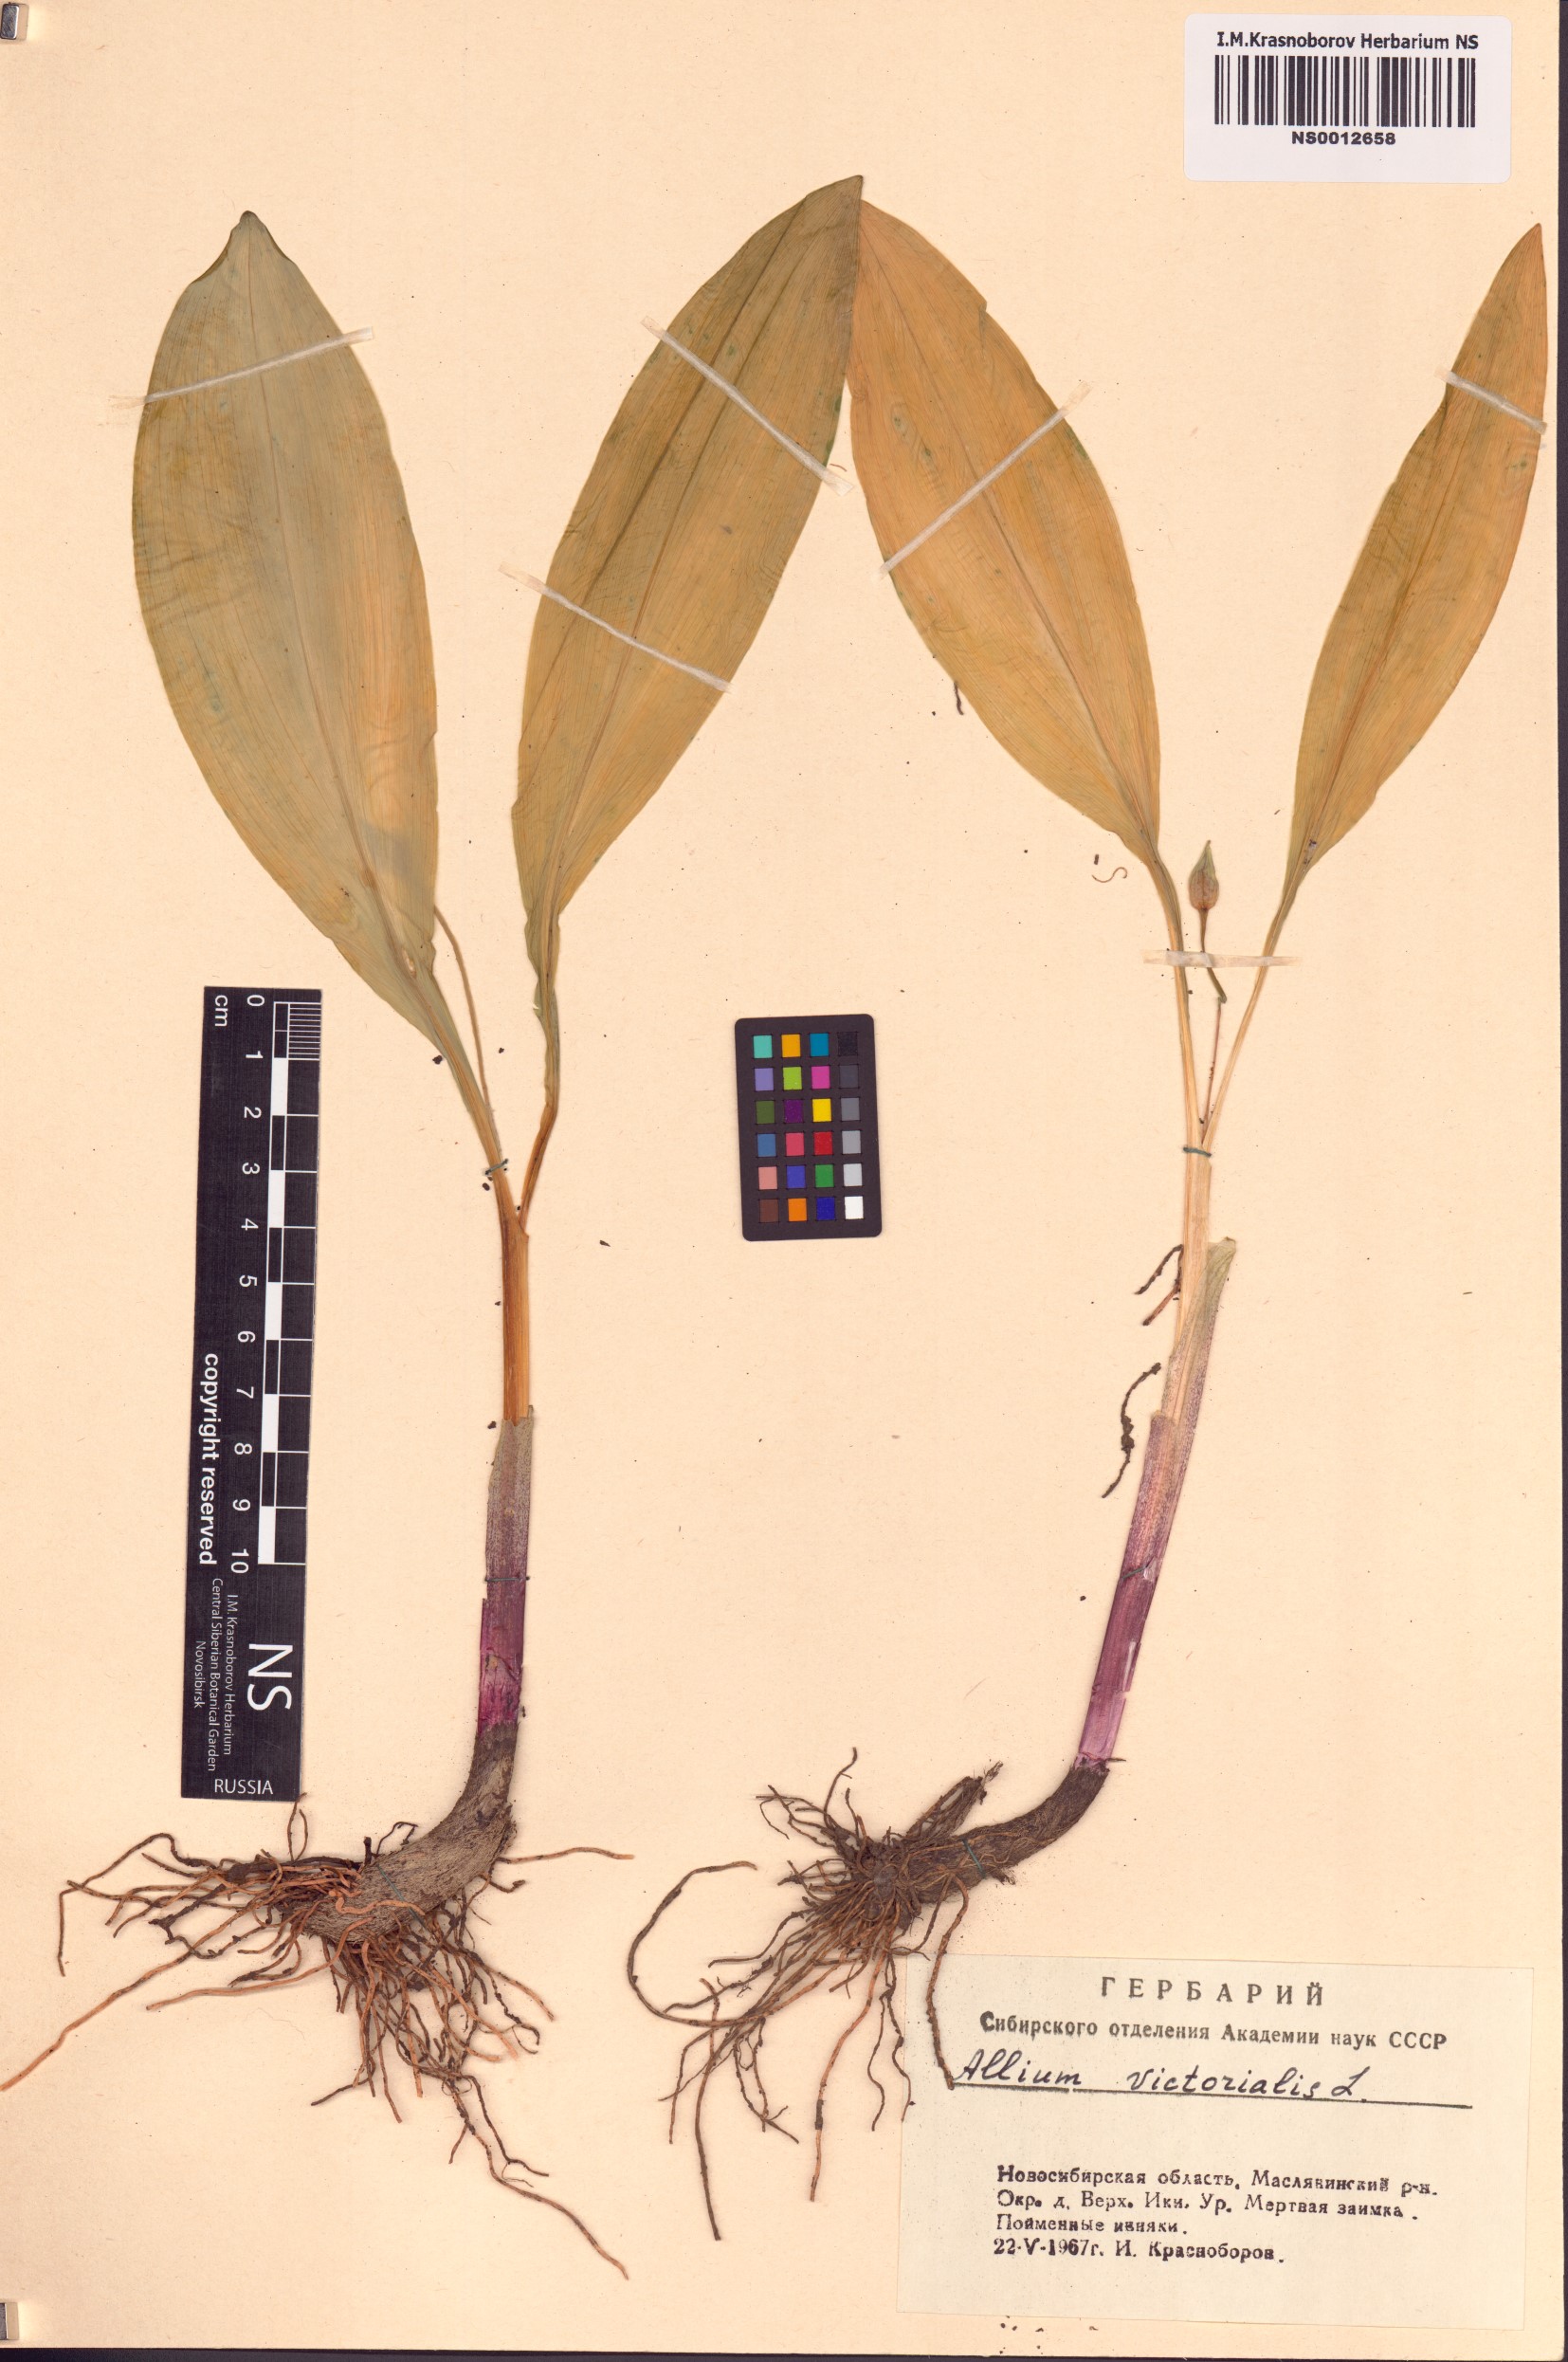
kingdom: Plantae
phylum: Tracheophyta
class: Liliopsida
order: Asparagales
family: Amaryllidaceae
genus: Allium
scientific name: Allium microdictyon
